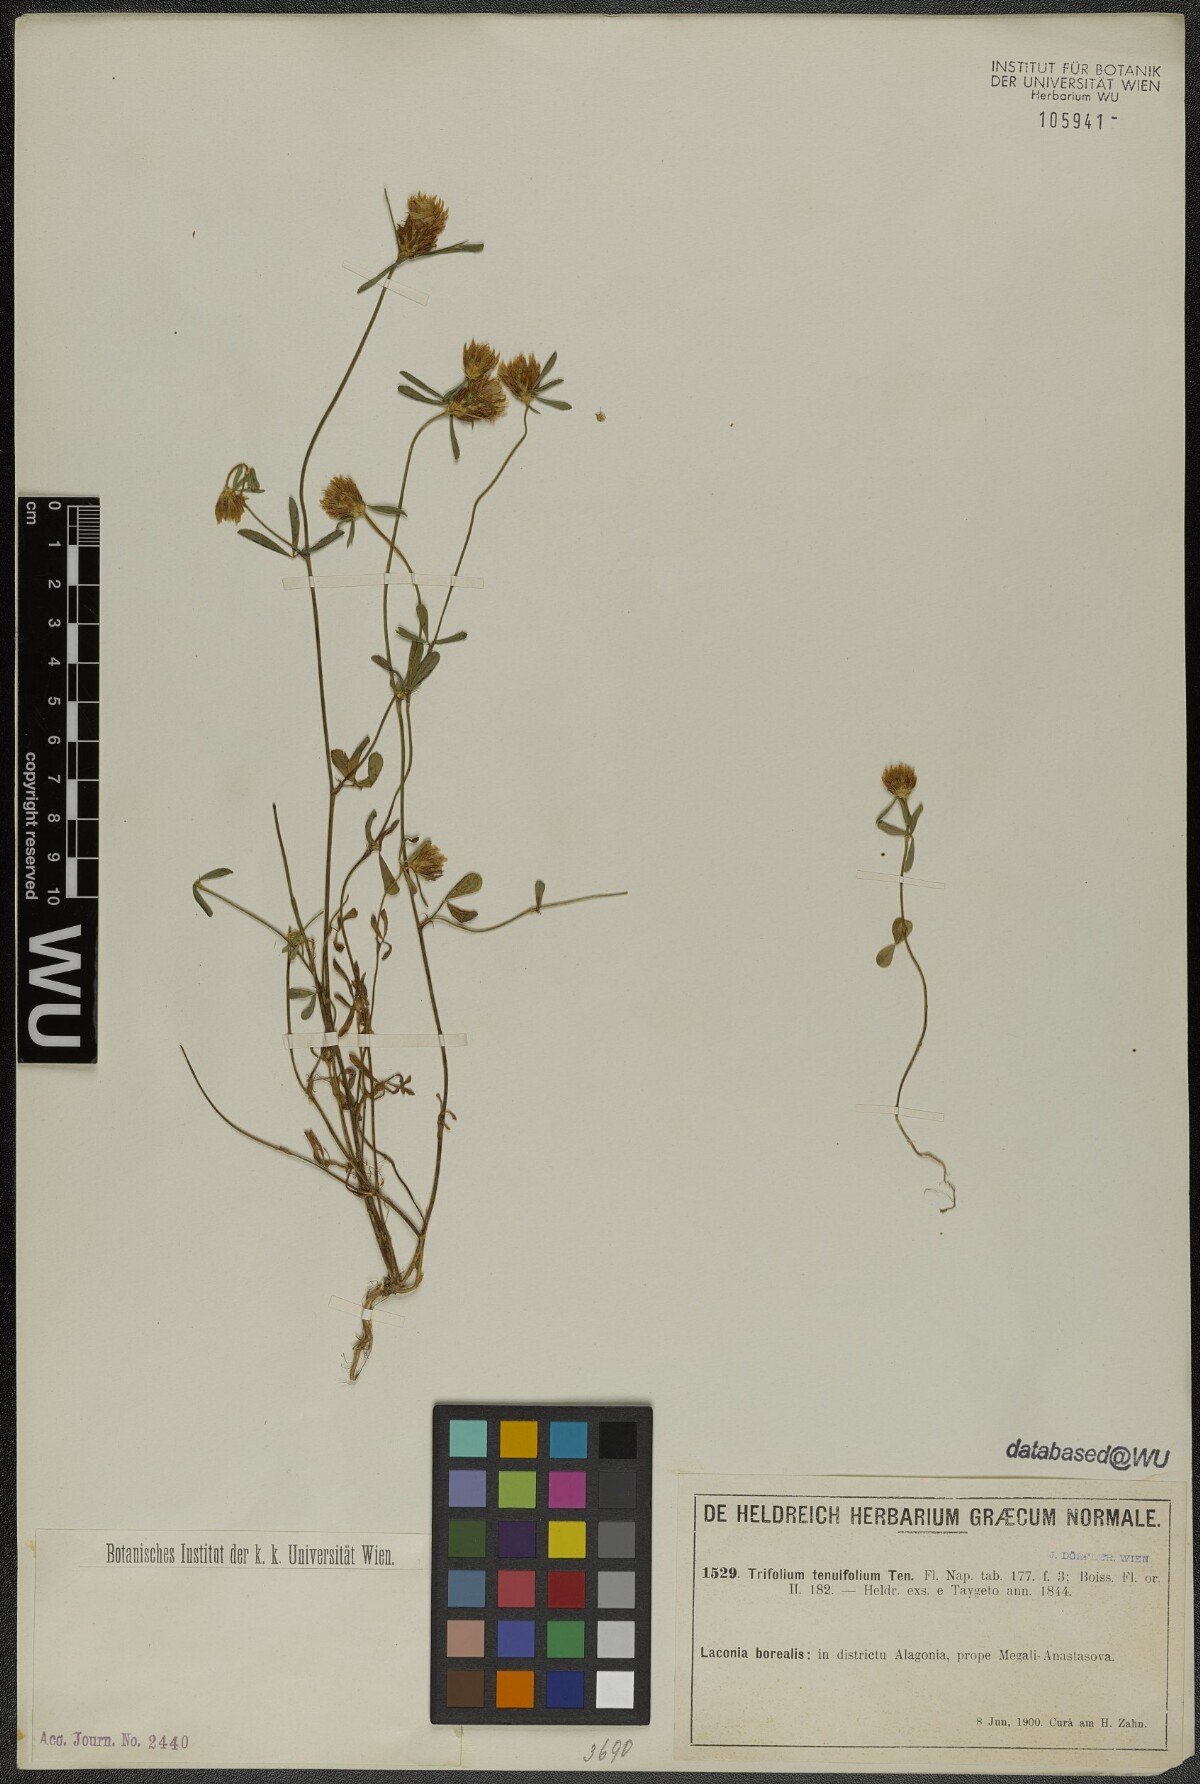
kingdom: Plantae
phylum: Tracheophyta
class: Magnoliopsida
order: Fabales
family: Fabaceae
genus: Trifolium
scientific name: Trifolium tenuifolium
